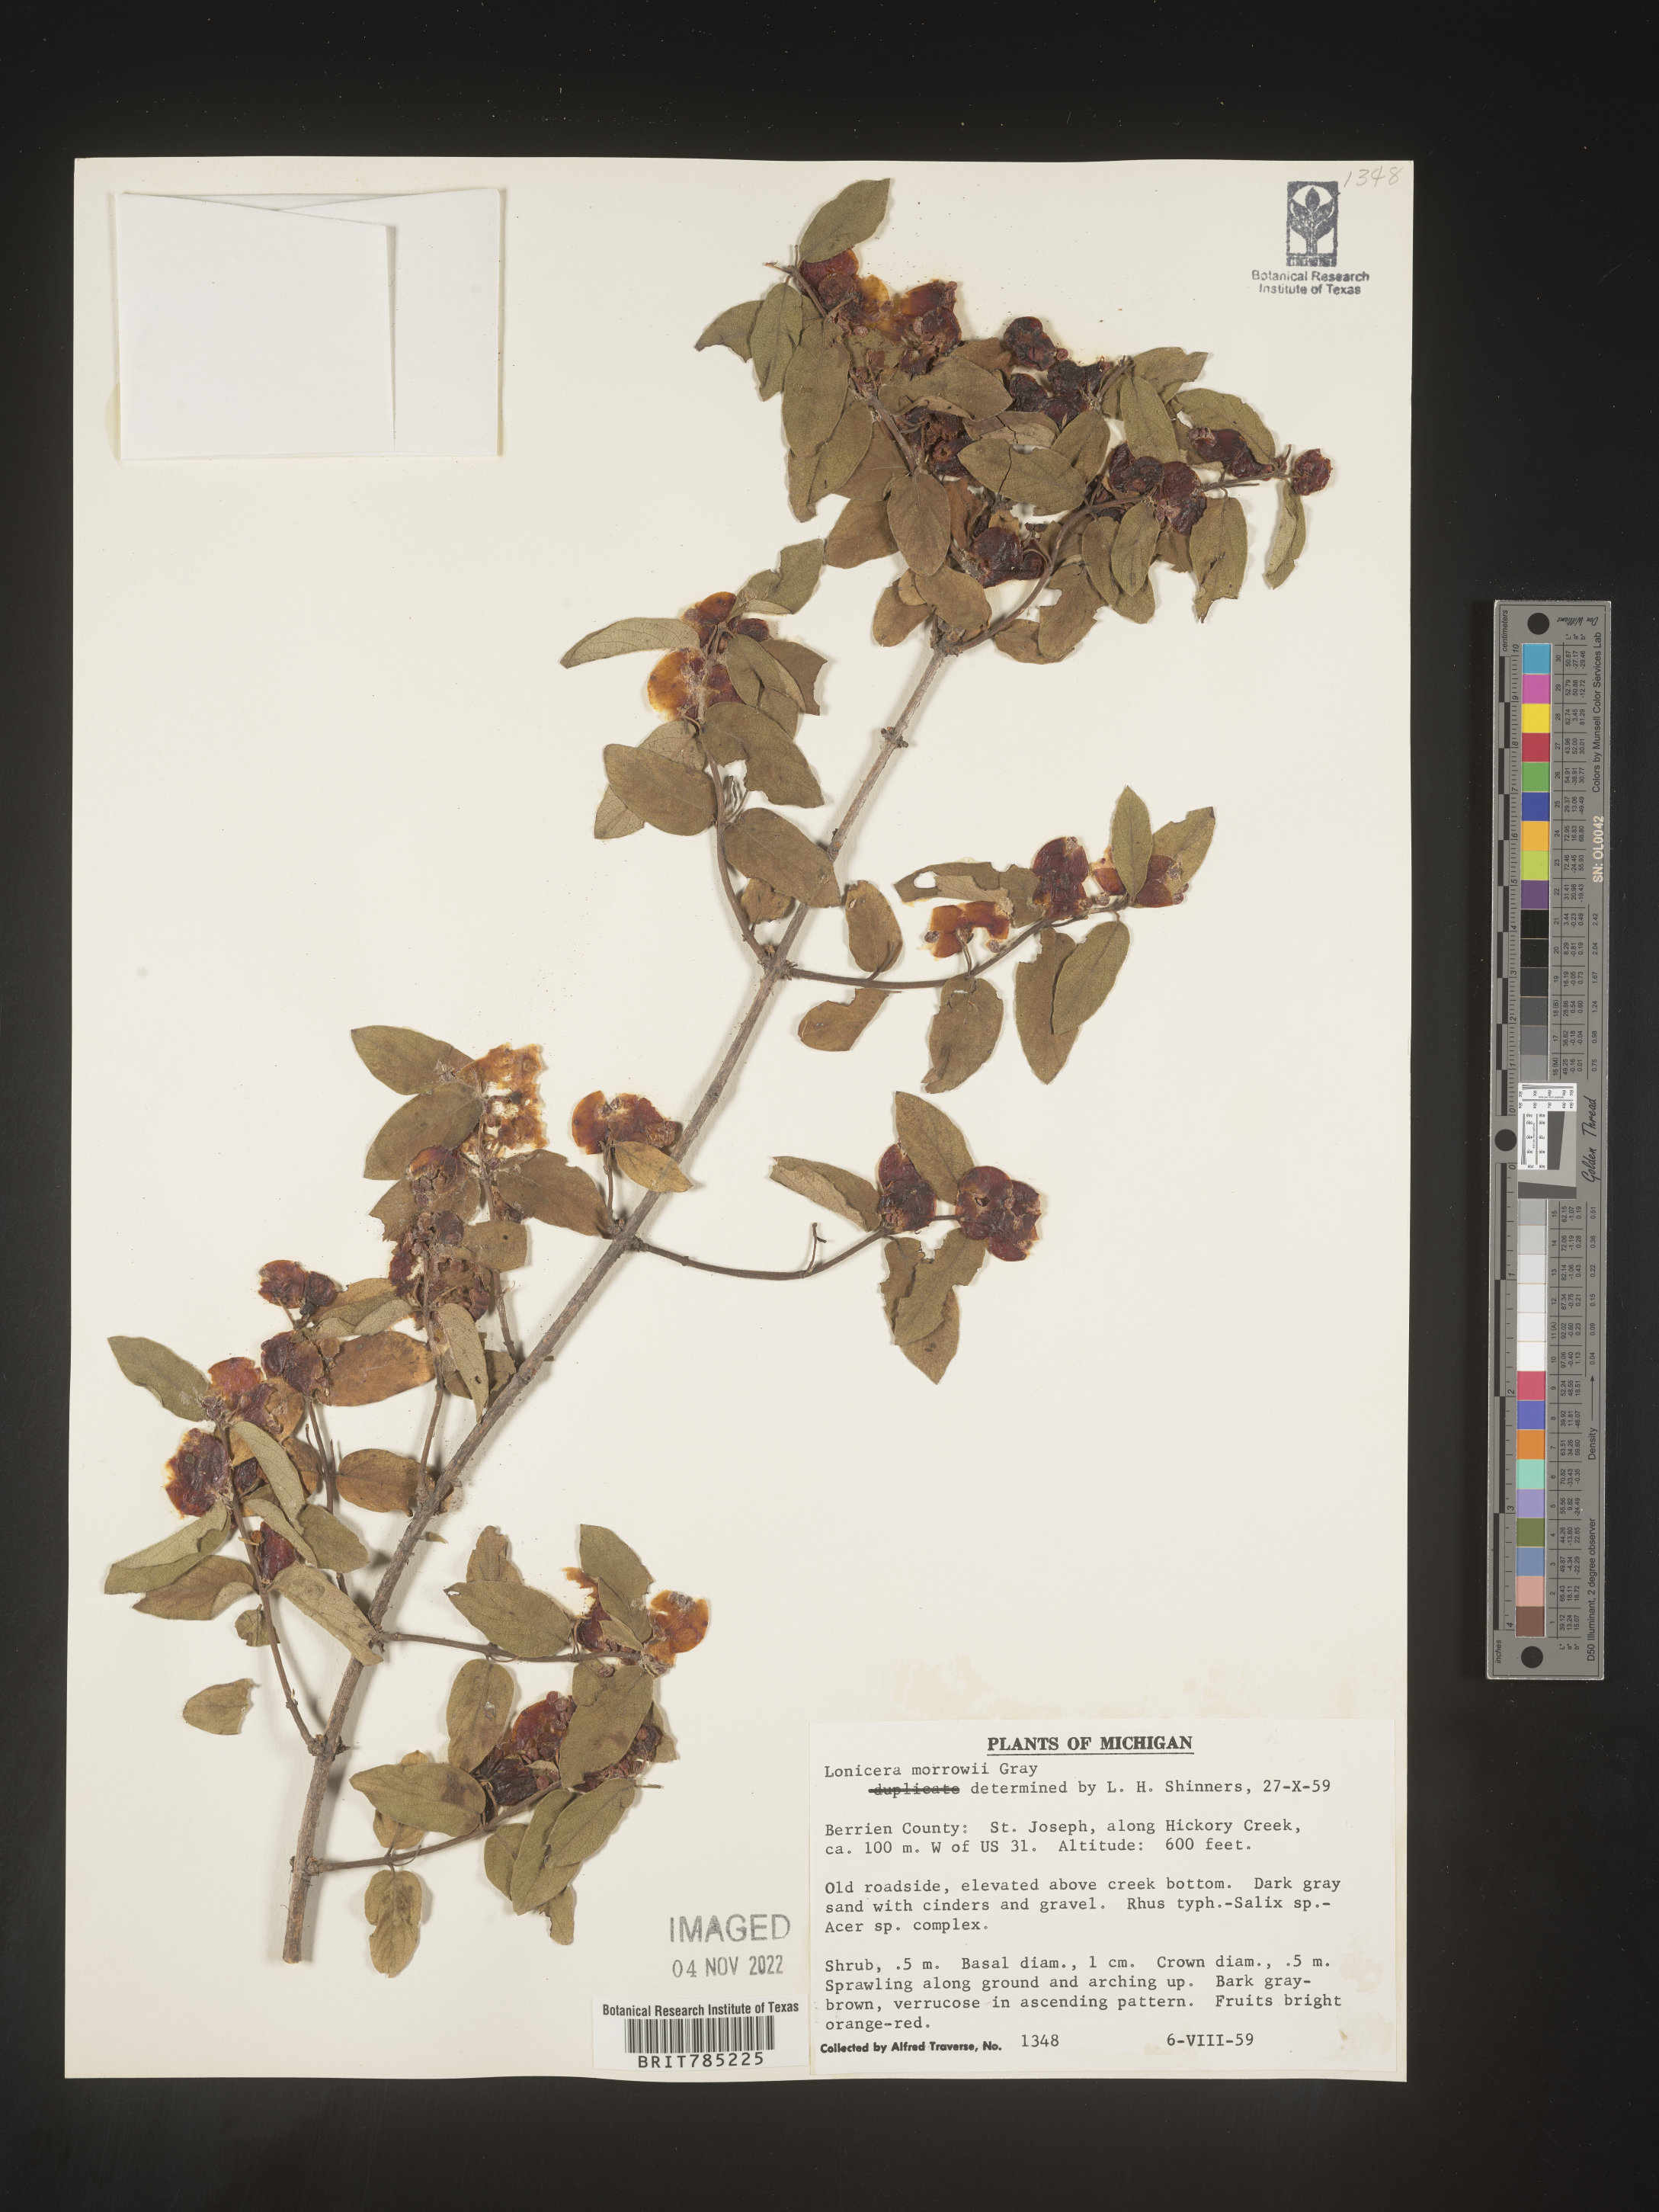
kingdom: Plantae
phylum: Tracheophyta
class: Magnoliopsida
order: Dipsacales
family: Caprifoliaceae
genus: Lonicera
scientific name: Lonicera
